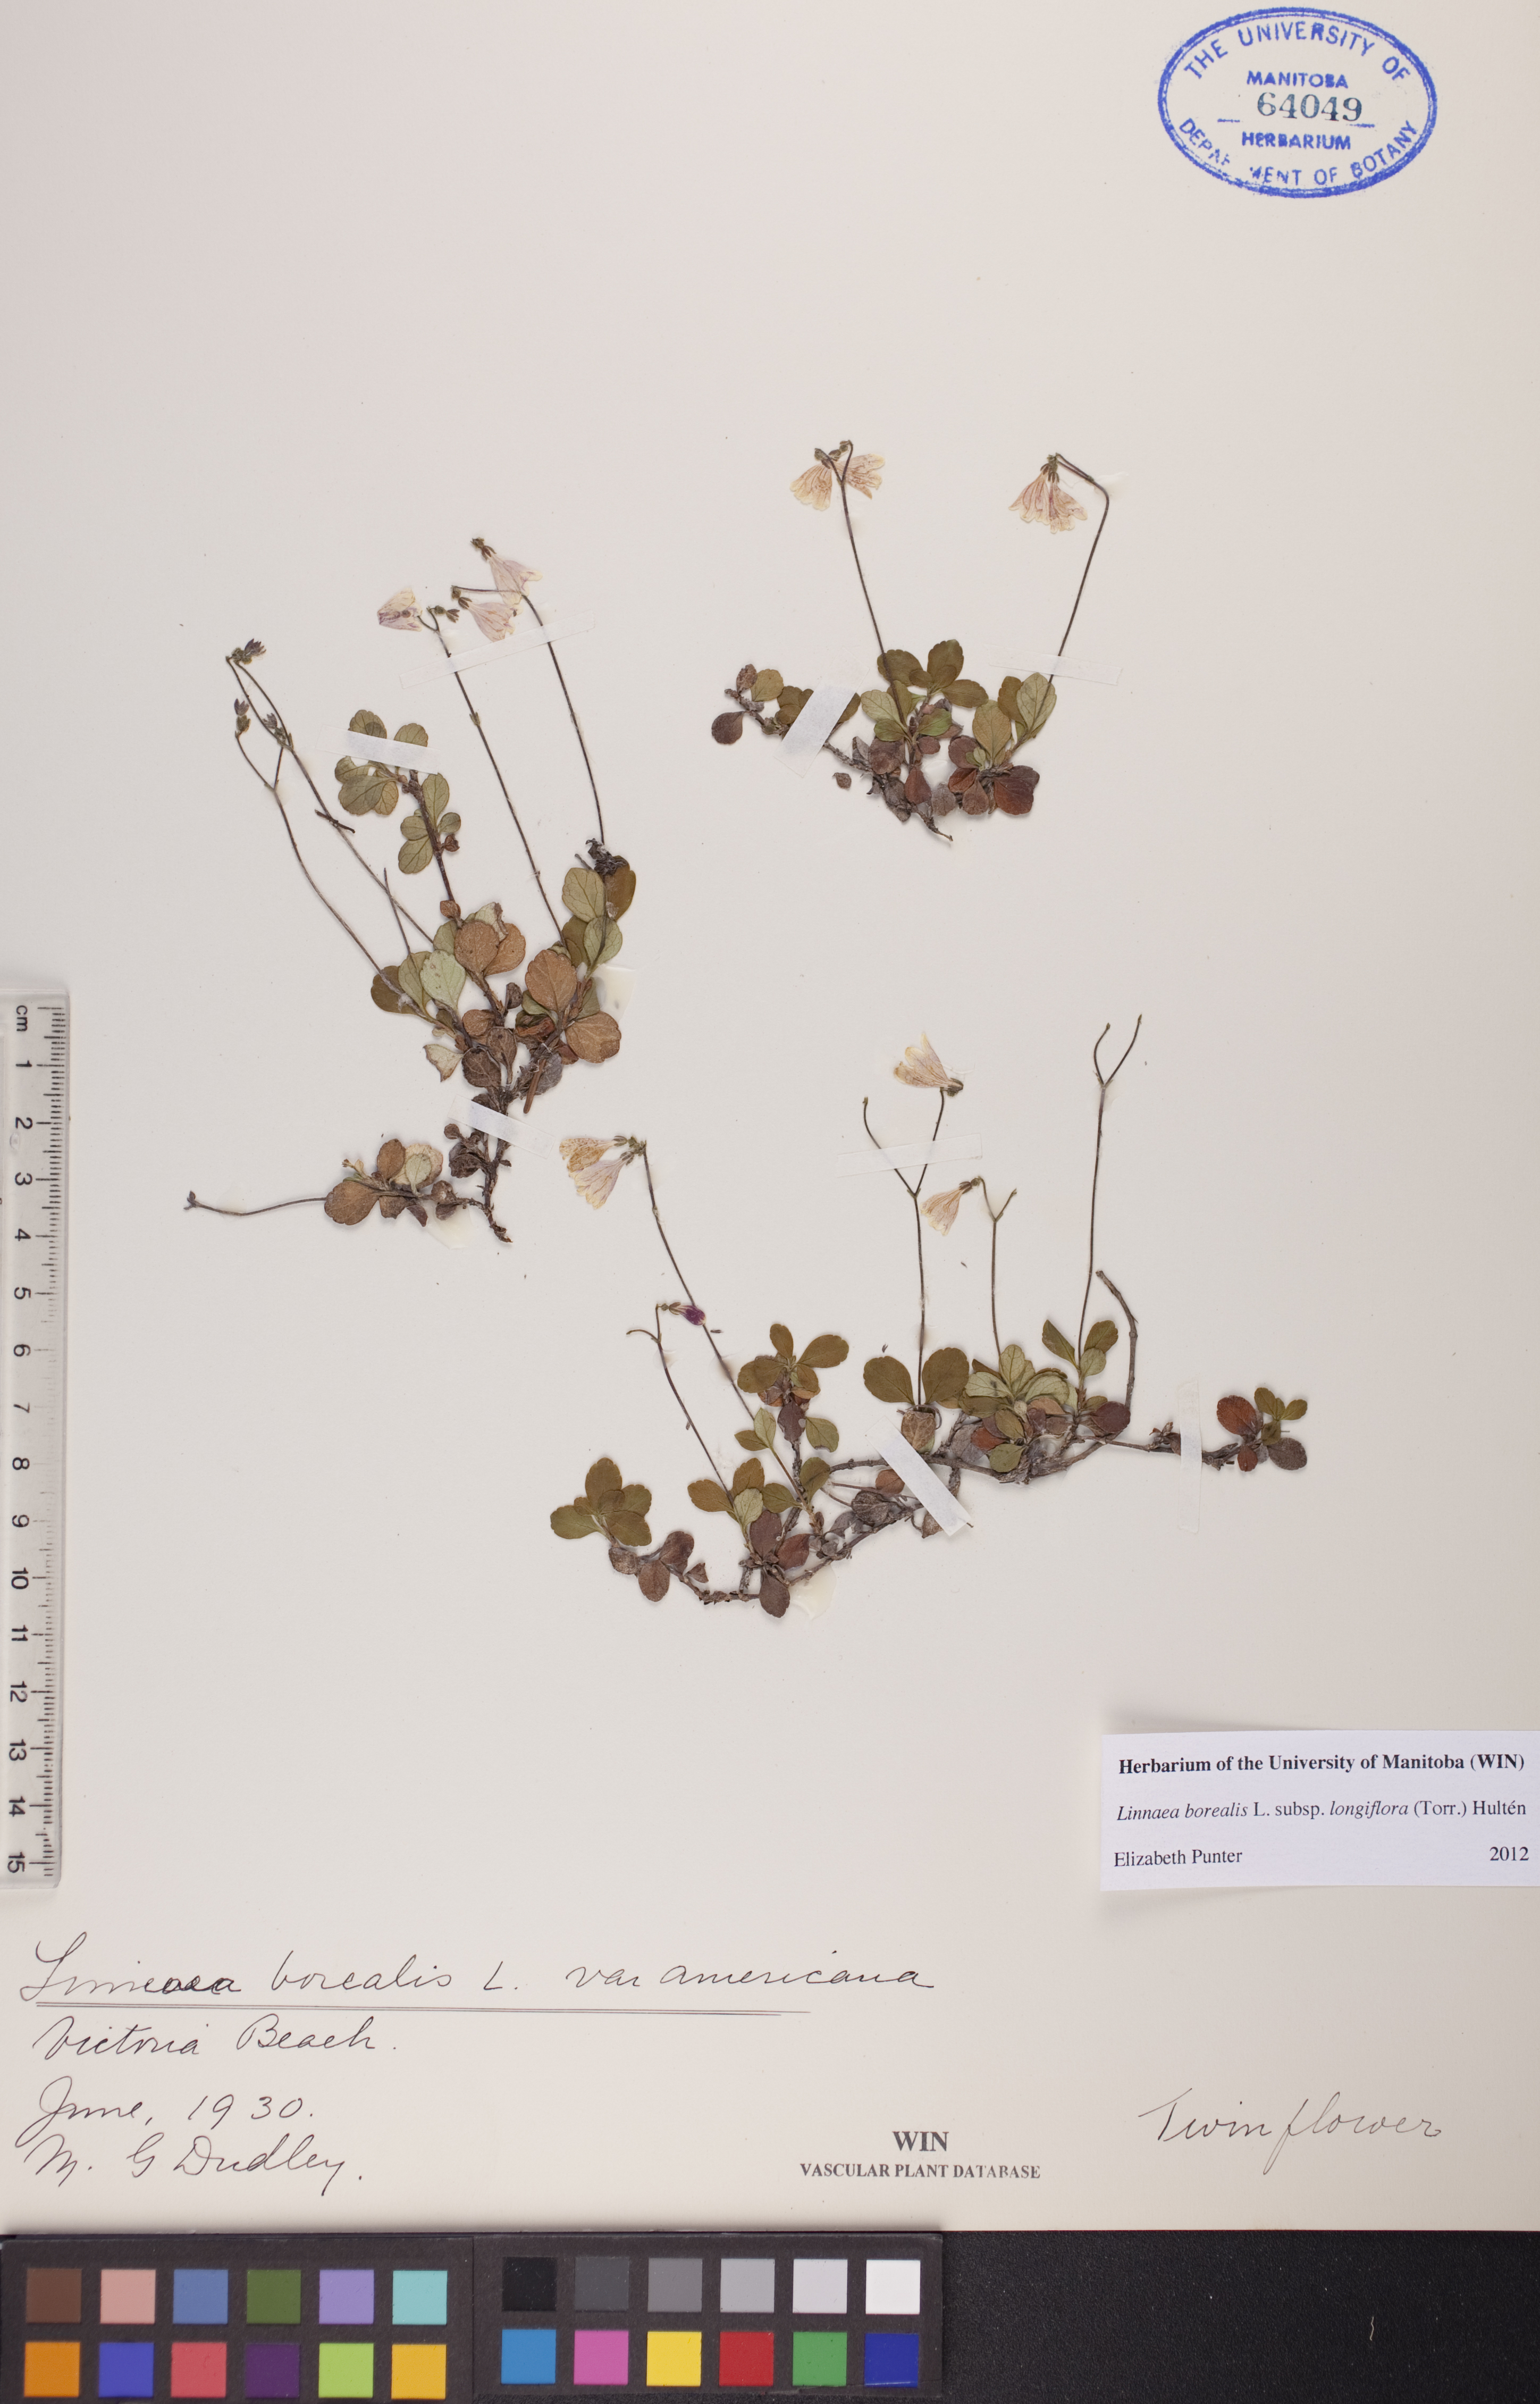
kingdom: Plantae
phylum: Tracheophyta
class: Magnoliopsida
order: Dipsacales
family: Caprifoliaceae
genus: Linnaea
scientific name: Linnaea borealis
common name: Twinflower
